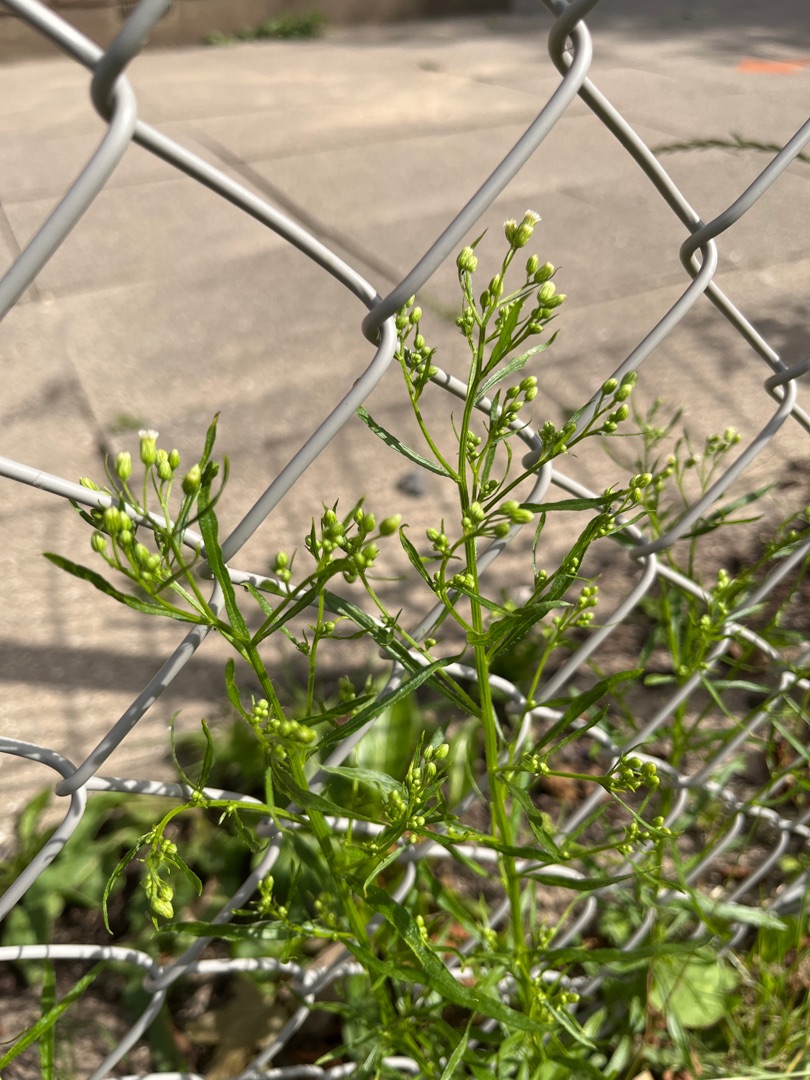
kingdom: Plantae
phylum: Tracheophyta
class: Magnoliopsida
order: Asterales
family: Asteraceae
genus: Erigeron
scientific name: Erigeron canadensis
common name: Kanadisk bakkestjerne
